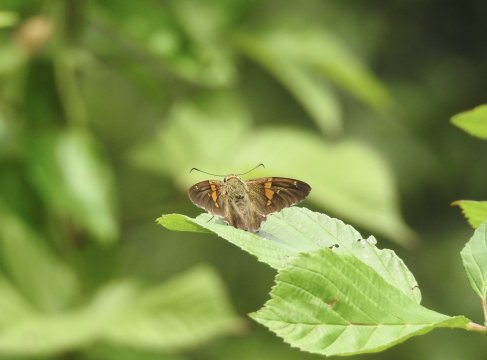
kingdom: Animalia
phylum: Arthropoda
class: Insecta
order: Lepidoptera
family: Hesperiidae
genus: Epargyreus
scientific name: Epargyreus clarus
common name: Silver-spotted Skipper
